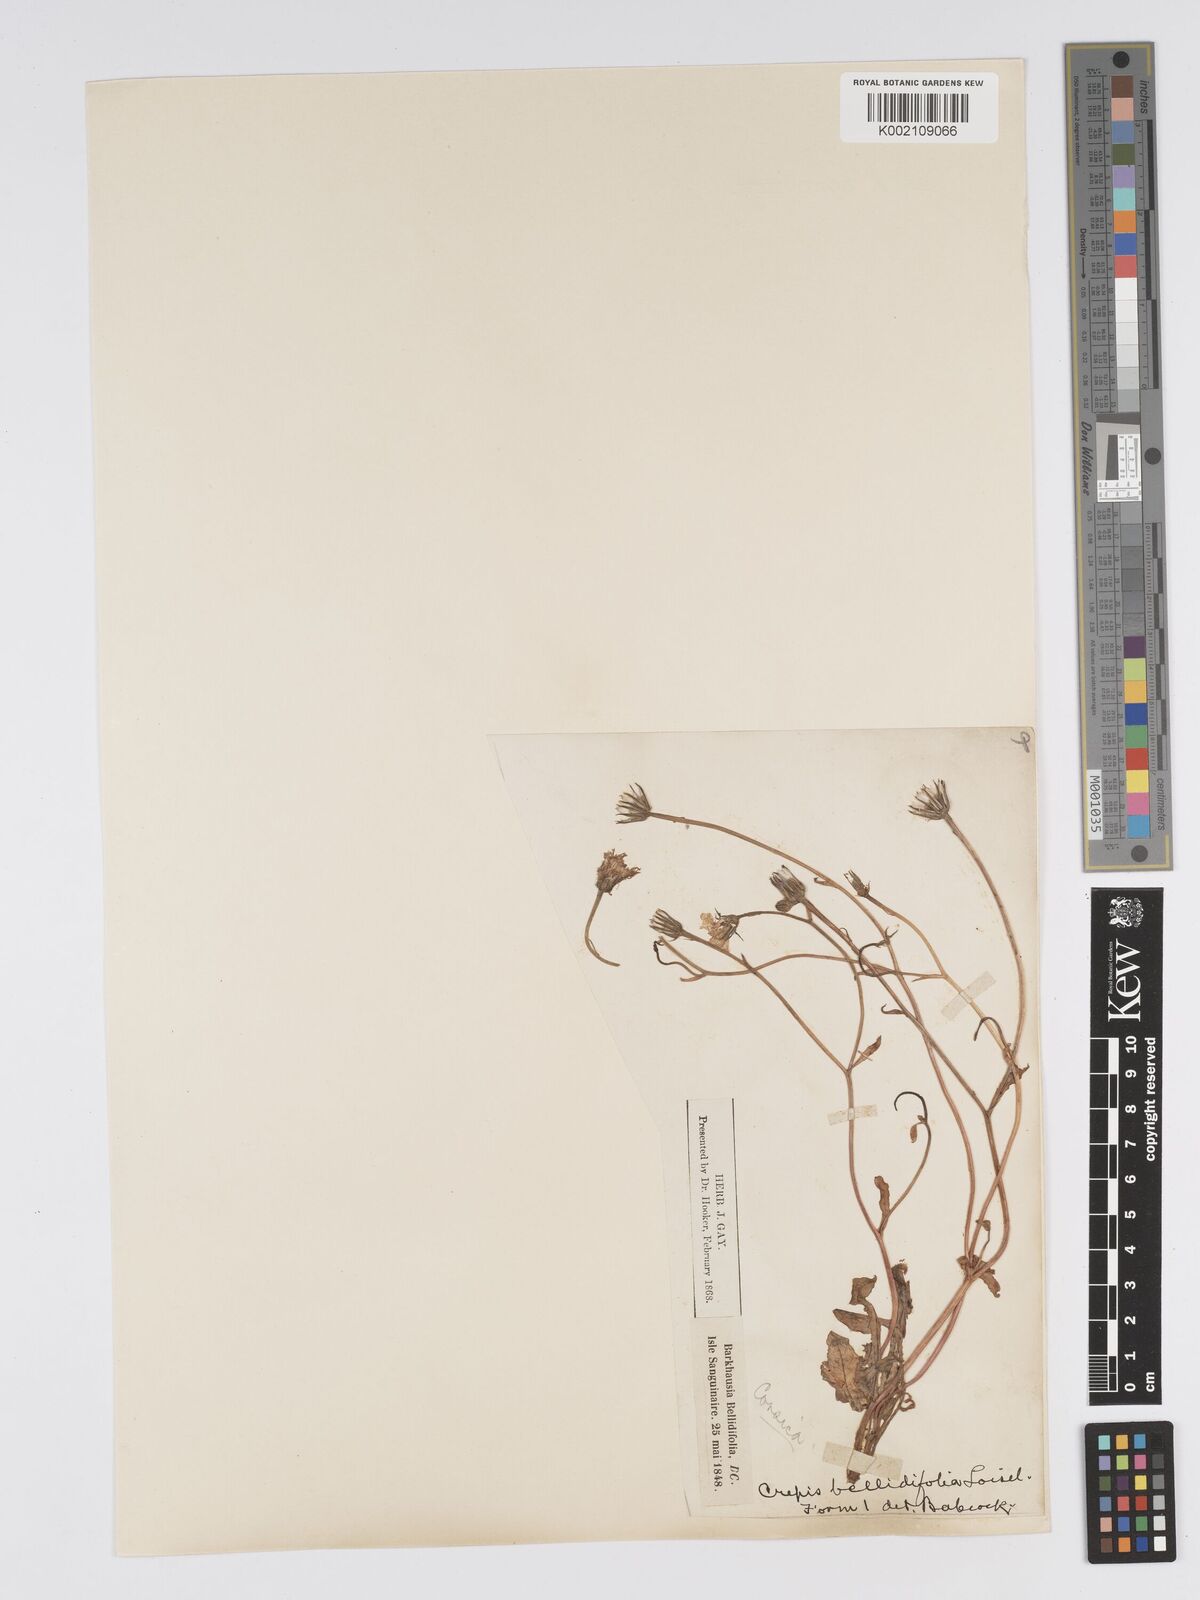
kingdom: Plantae
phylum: Tracheophyta
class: Magnoliopsida
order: Asterales
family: Asteraceae
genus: Crepis
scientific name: Crepis bellidifolia
